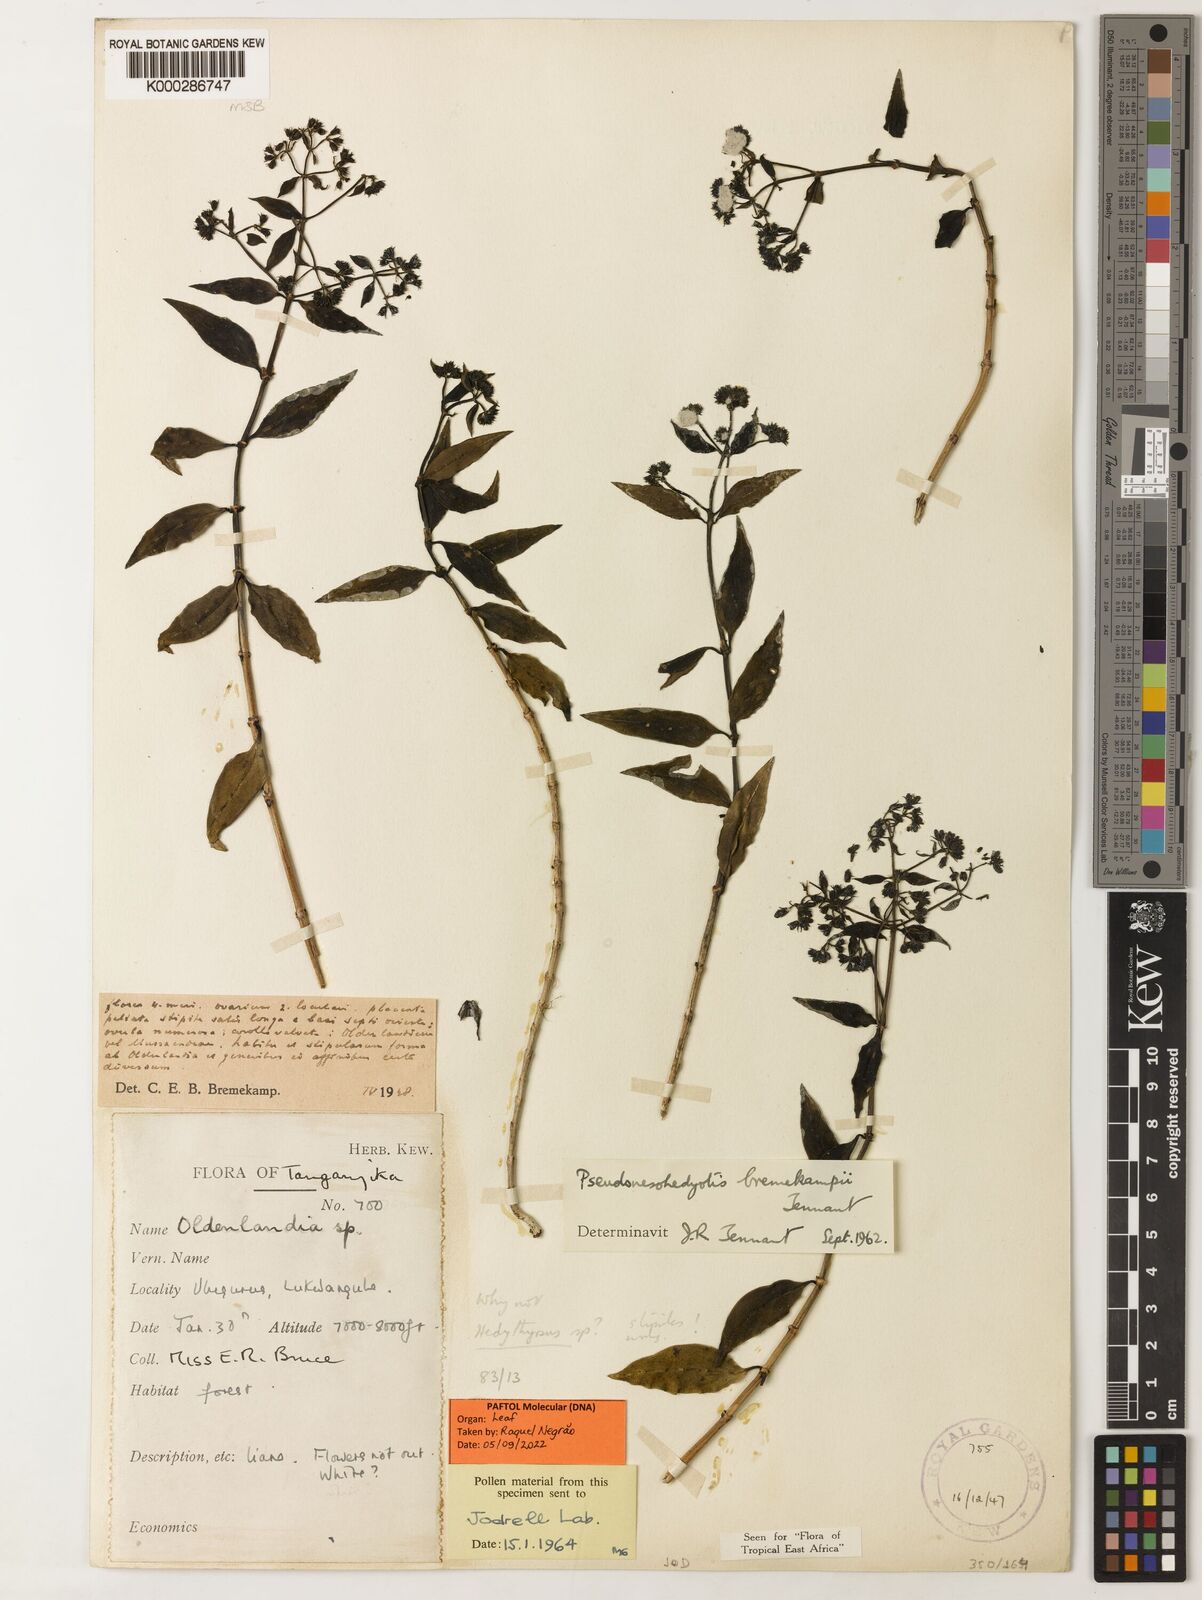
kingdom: Plantae
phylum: Tracheophyta
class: Magnoliopsida
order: Gentianales
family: Rubiaceae
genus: Pseudonesohedyotis
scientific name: Pseudonesohedyotis bremekampii
